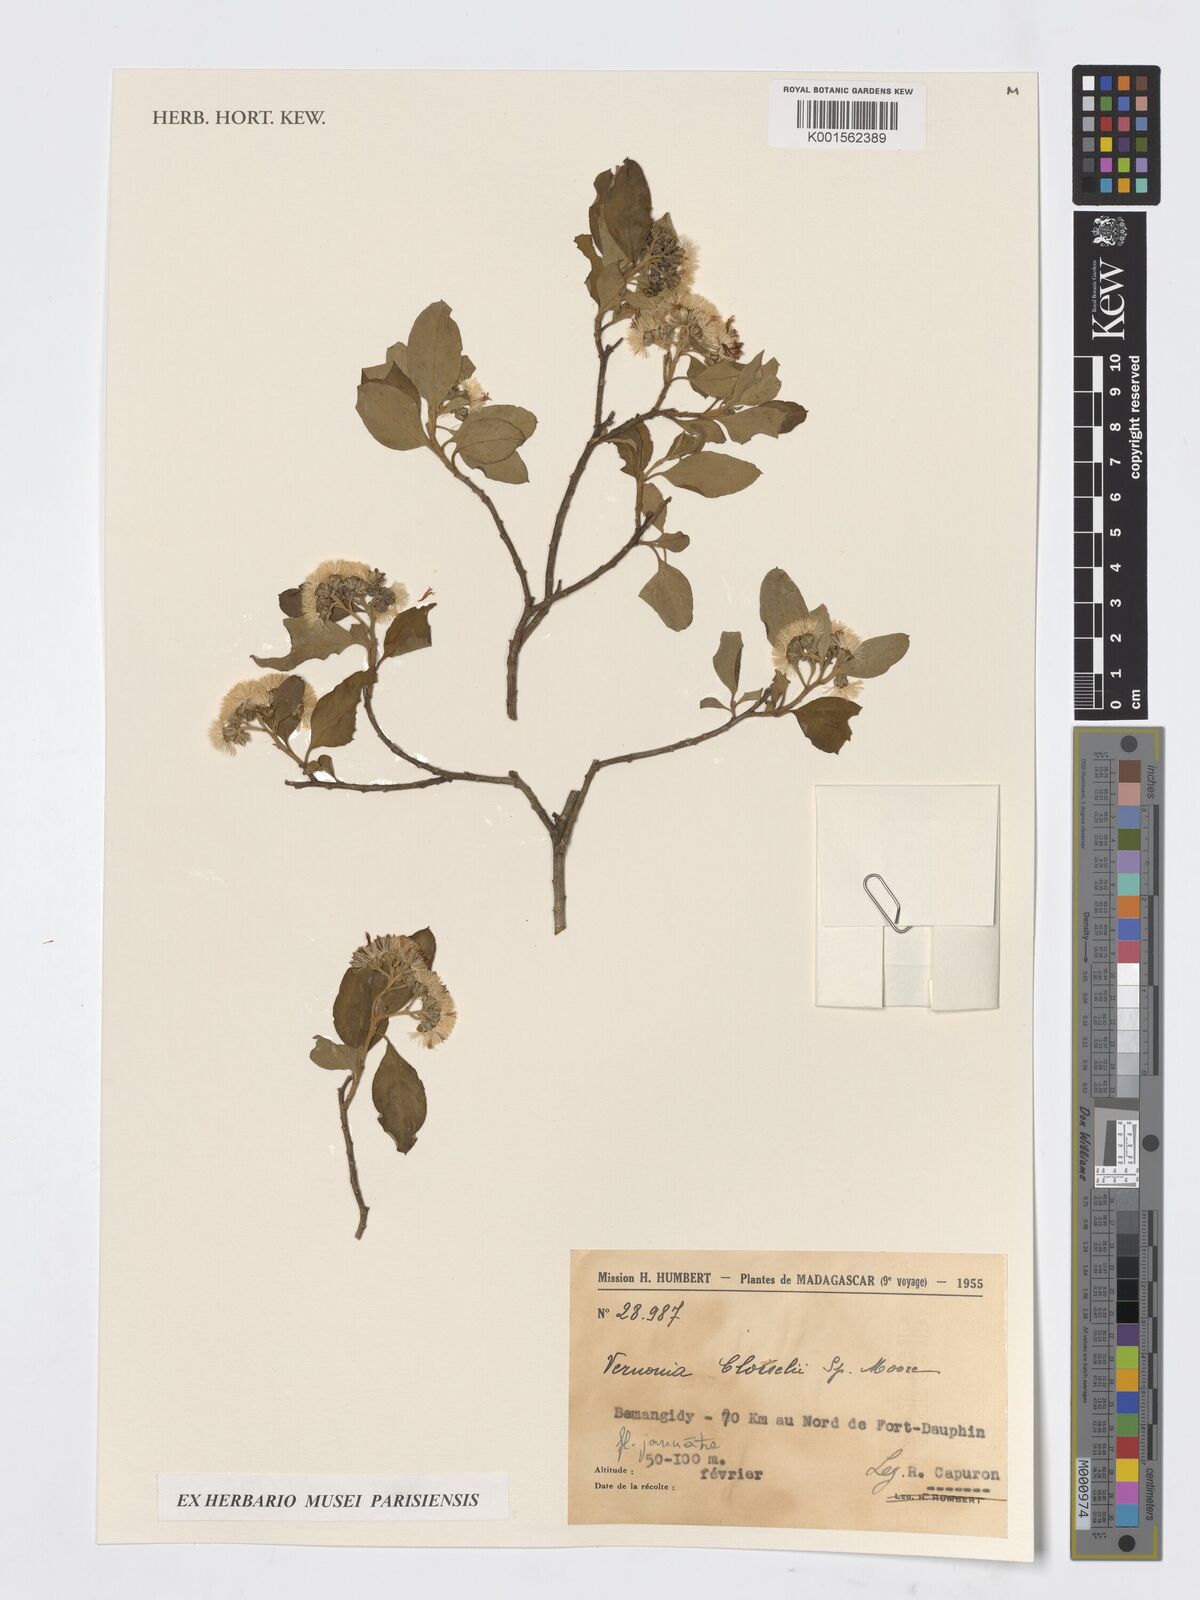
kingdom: Plantae
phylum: Tracheophyta
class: Magnoliopsida
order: Asterales
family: Asteraceae
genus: Vernonia
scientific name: Vernonia
